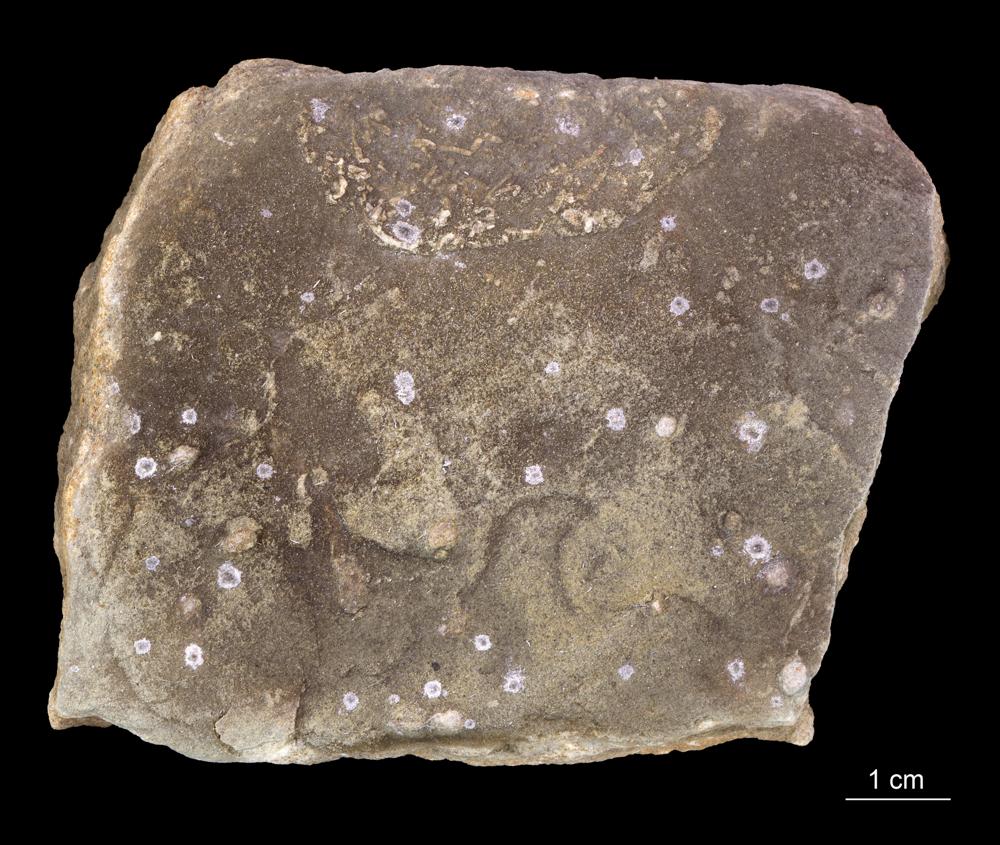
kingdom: Animalia
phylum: Annelida
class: Polychaeta
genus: Volborthella
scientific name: Volborthella tenuis
